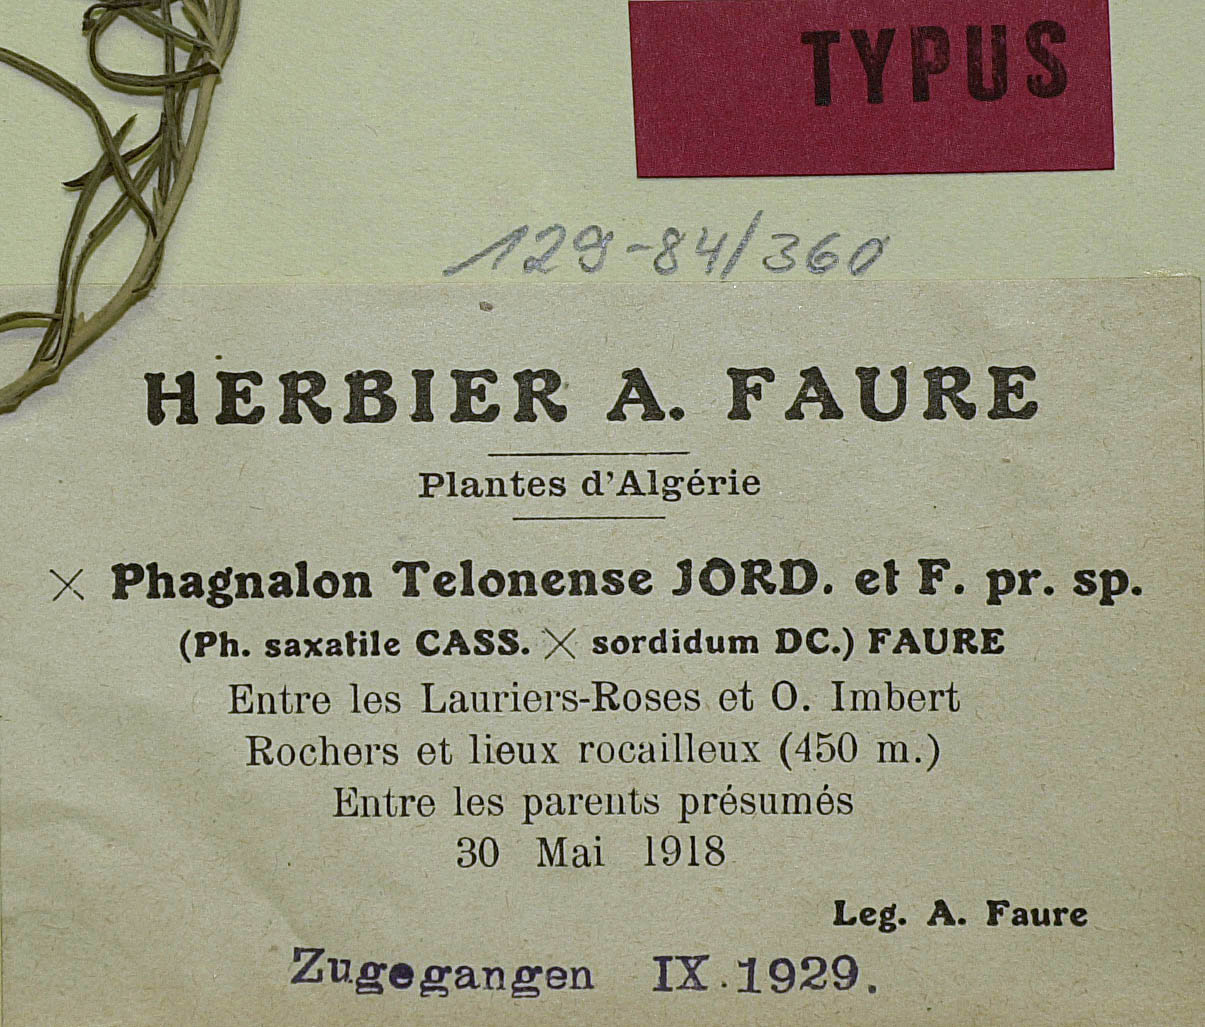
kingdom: Plantae
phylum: Tracheophyta
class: Magnoliopsida
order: Asterales
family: Asteraceae
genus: Phagnalon
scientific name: Phagnalon telonense
